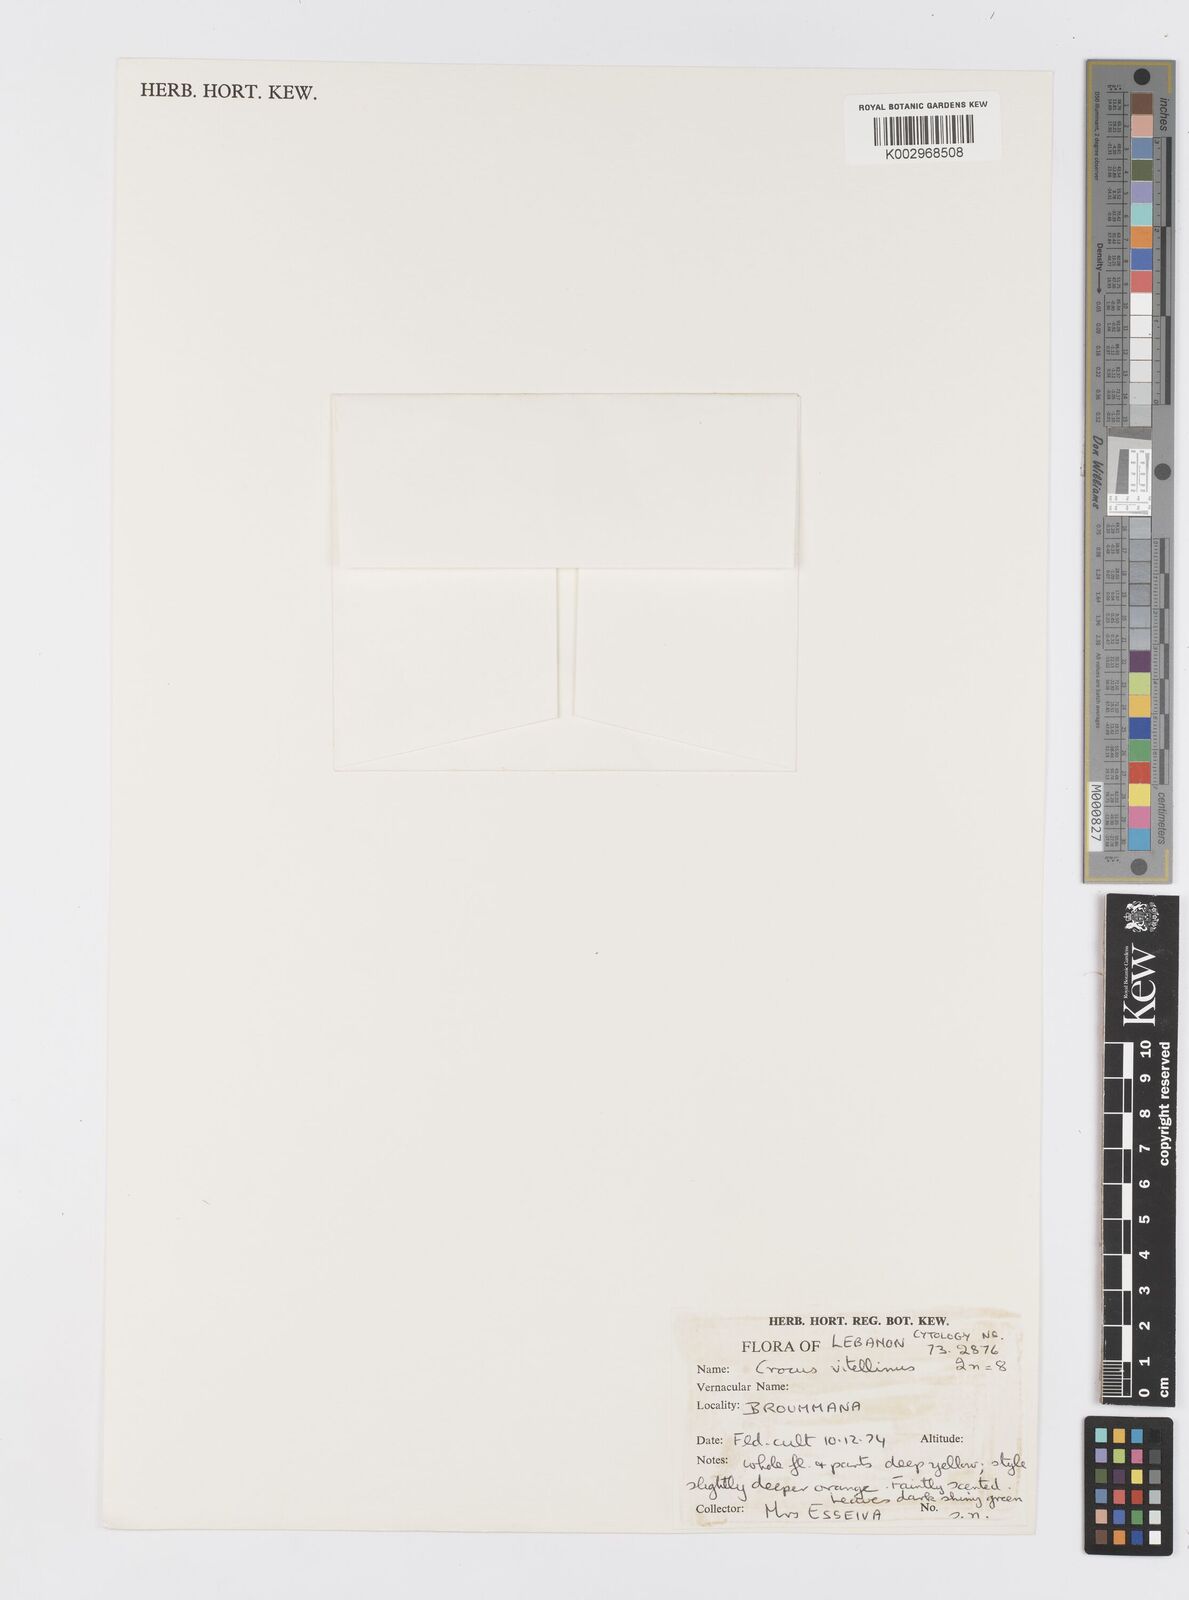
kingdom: Plantae
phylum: Tracheophyta
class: Liliopsida
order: Asparagales
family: Iridaceae
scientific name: Iridaceae
